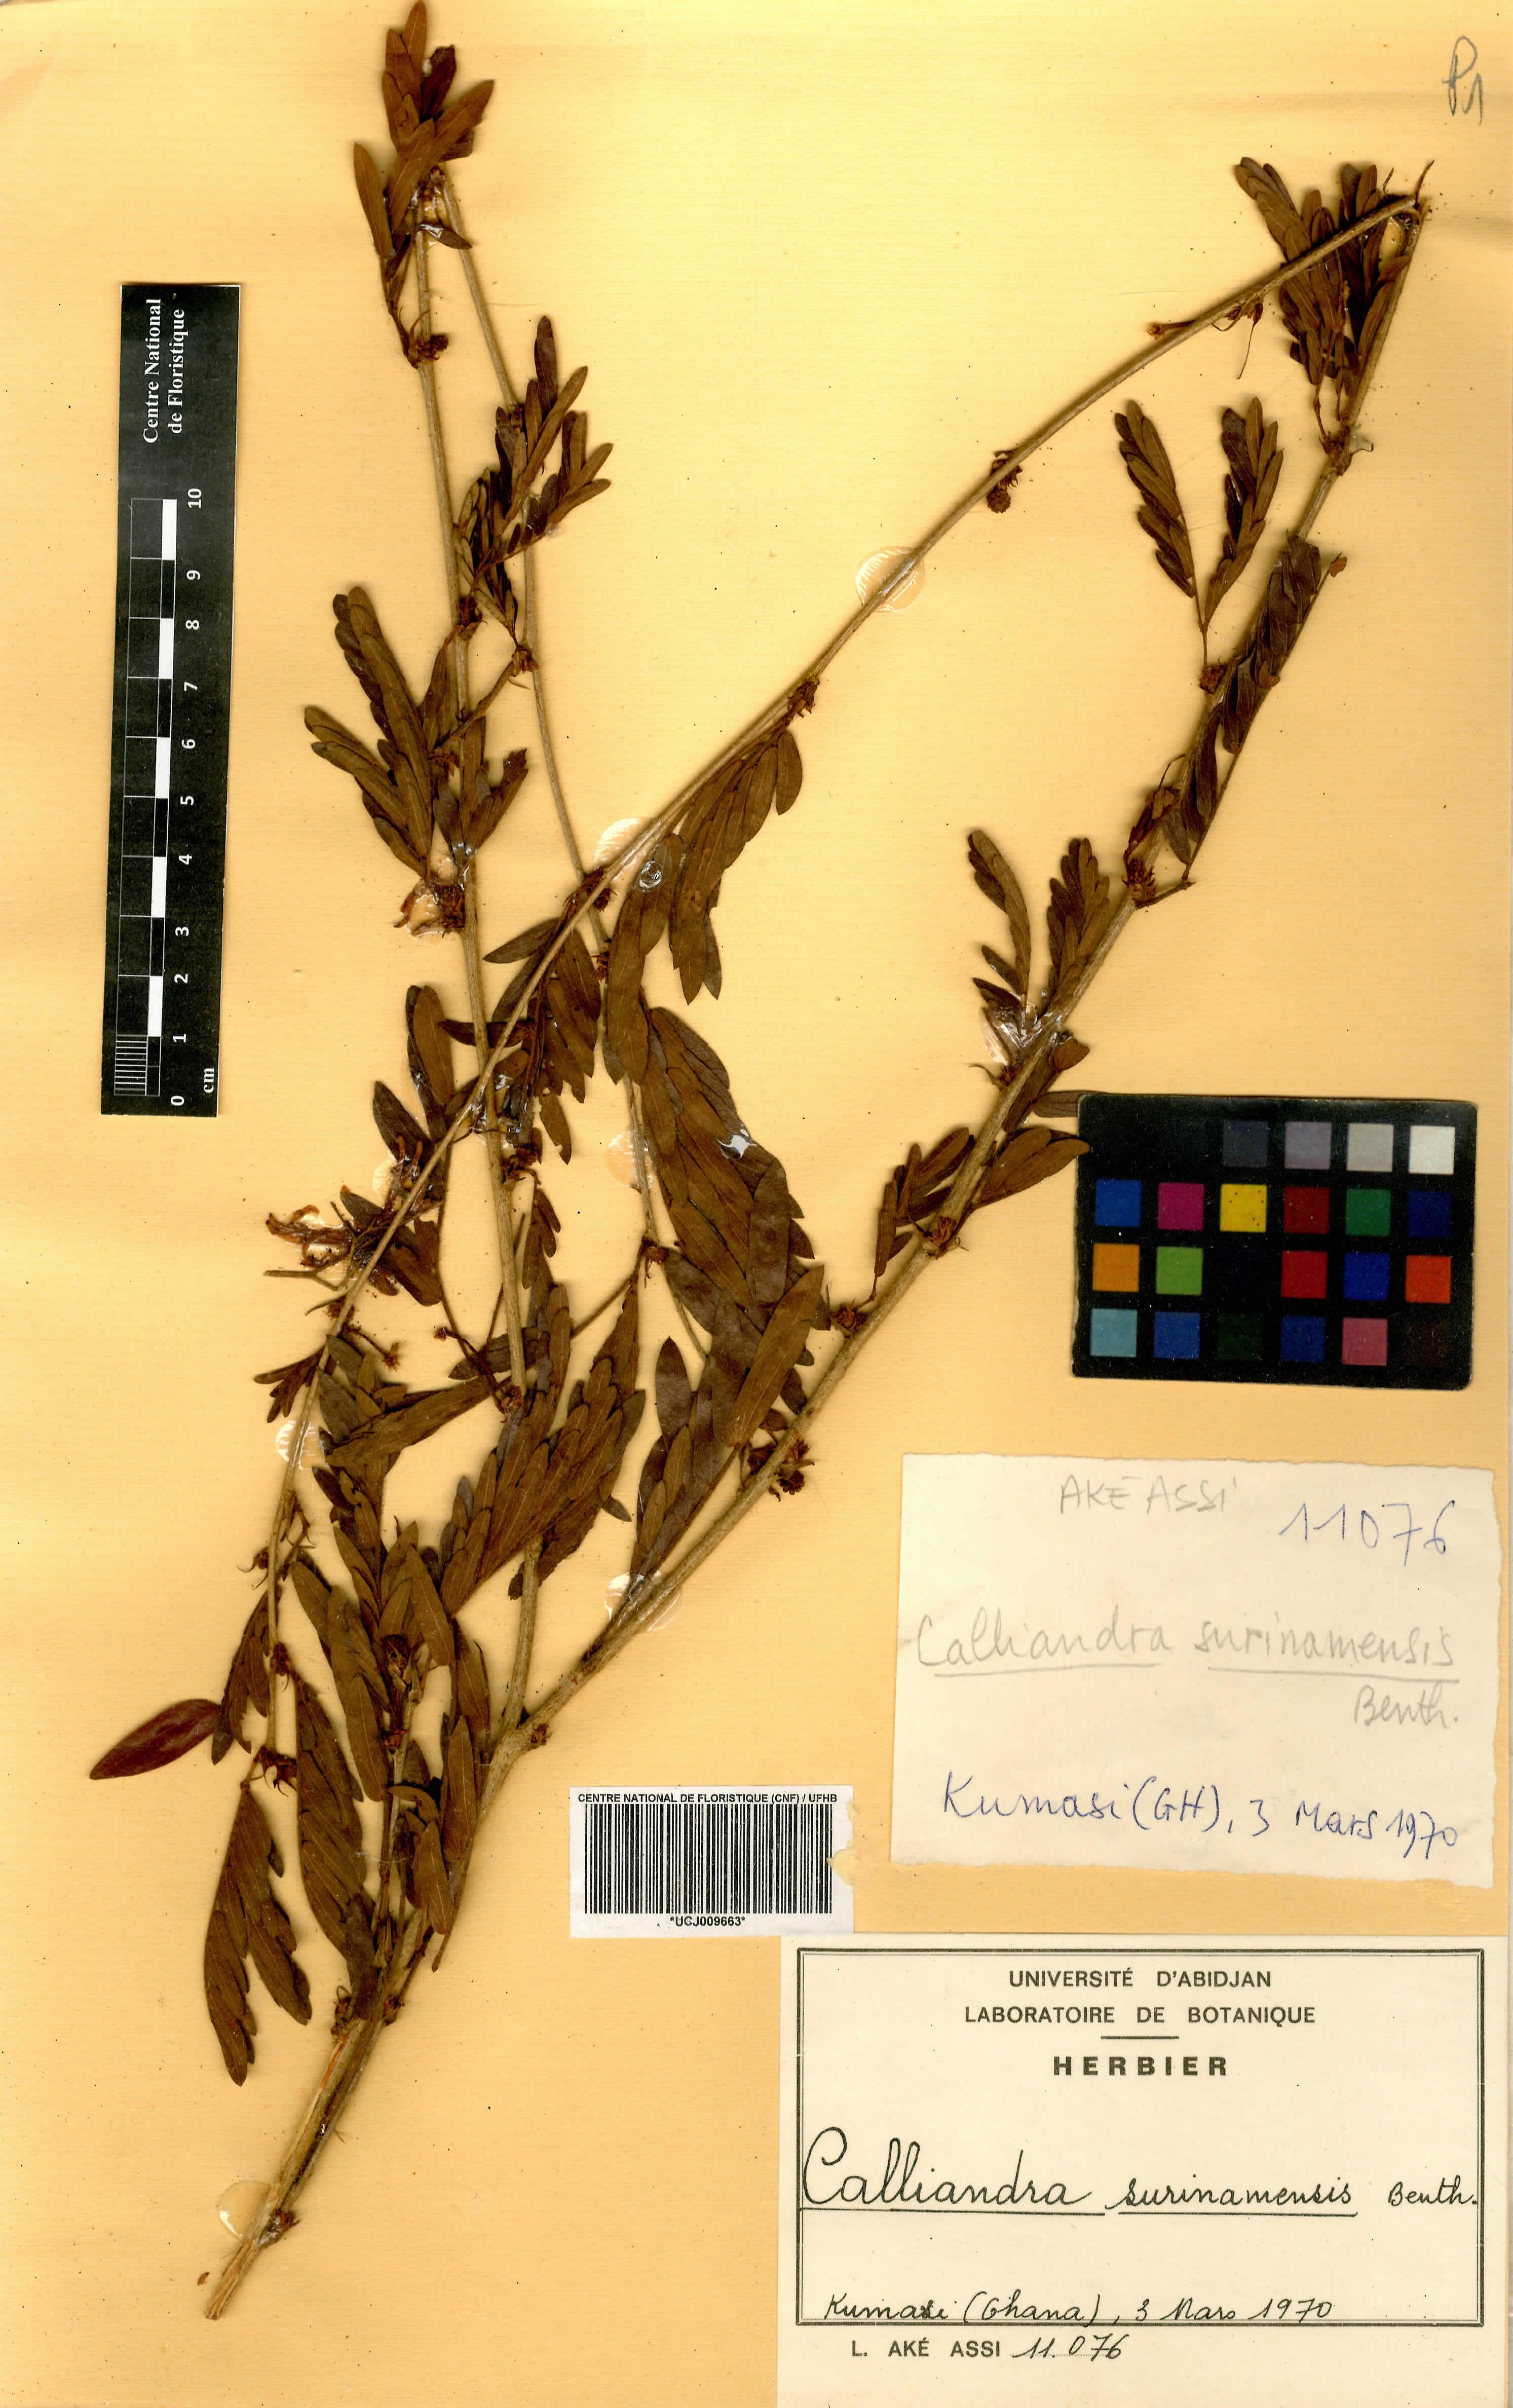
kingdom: Plantae
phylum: Tracheophyta
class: Magnoliopsida
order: Fabales
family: Fabaceae
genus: Calliandra
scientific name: Calliandra surinamensis
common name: Pink powder puff
